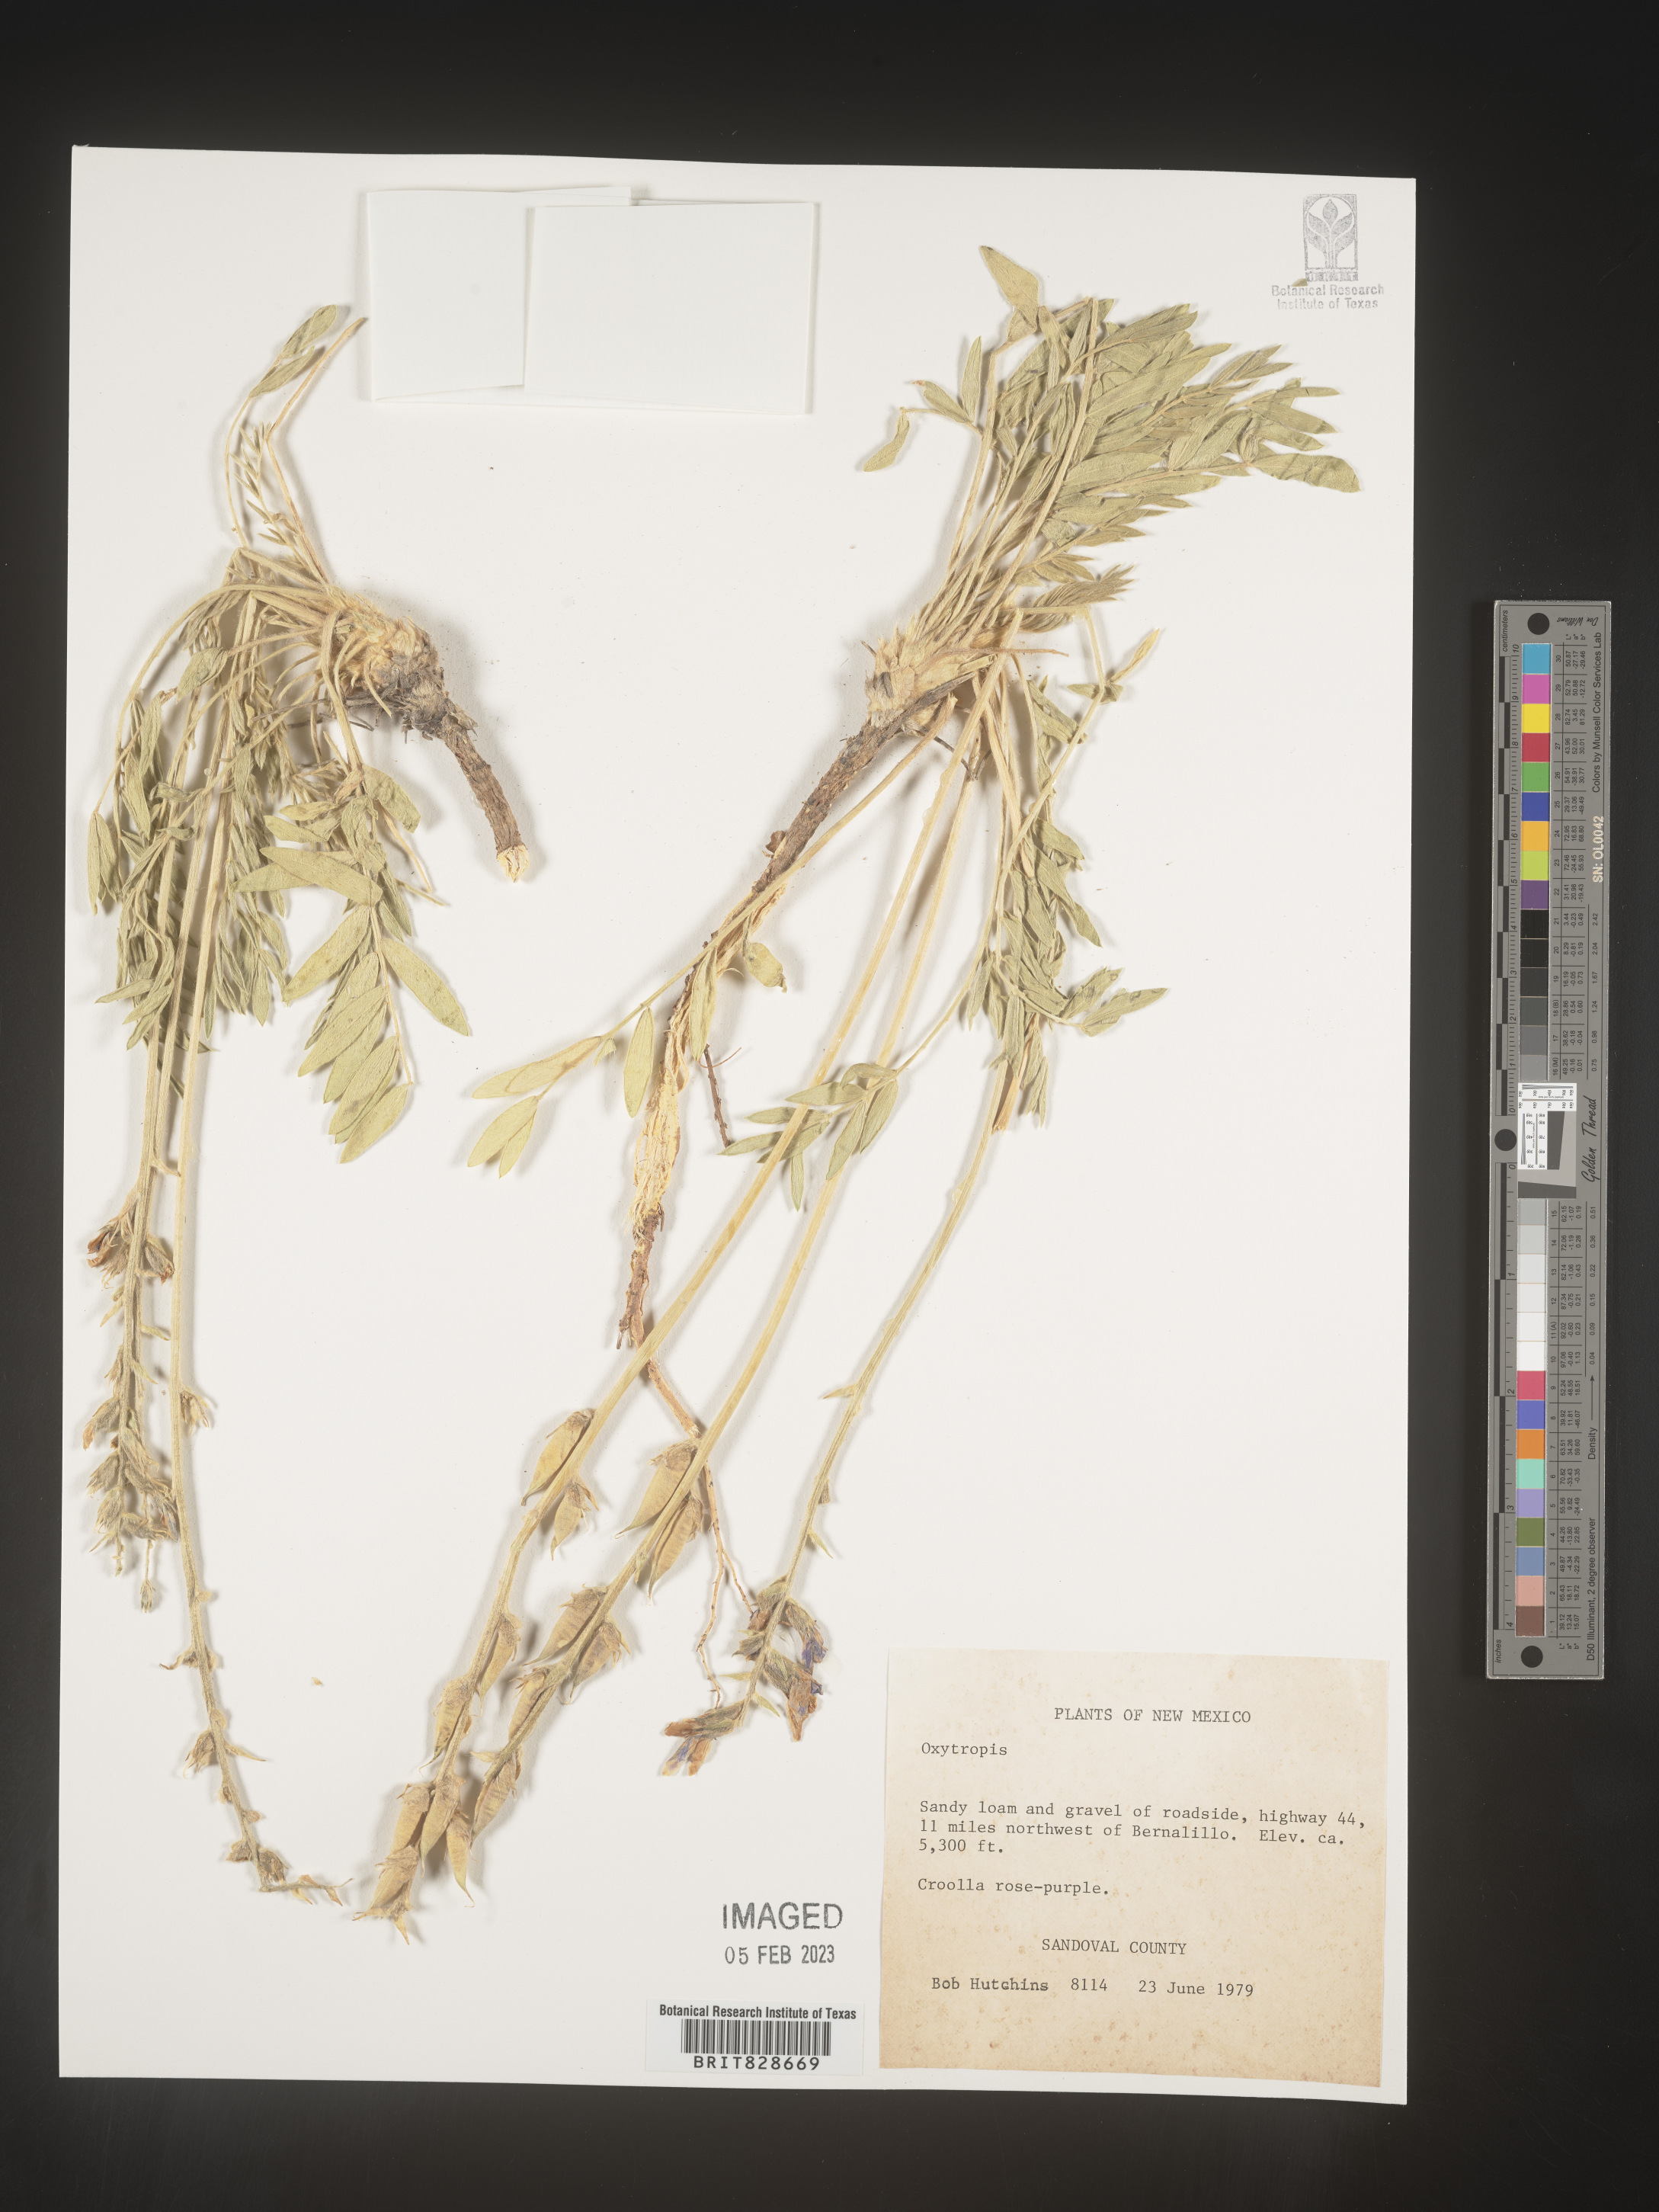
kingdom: Plantae
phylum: Tracheophyta
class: Magnoliopsida
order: Fabales
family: Fabaceae
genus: Oxytropis
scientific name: Oxytropis
